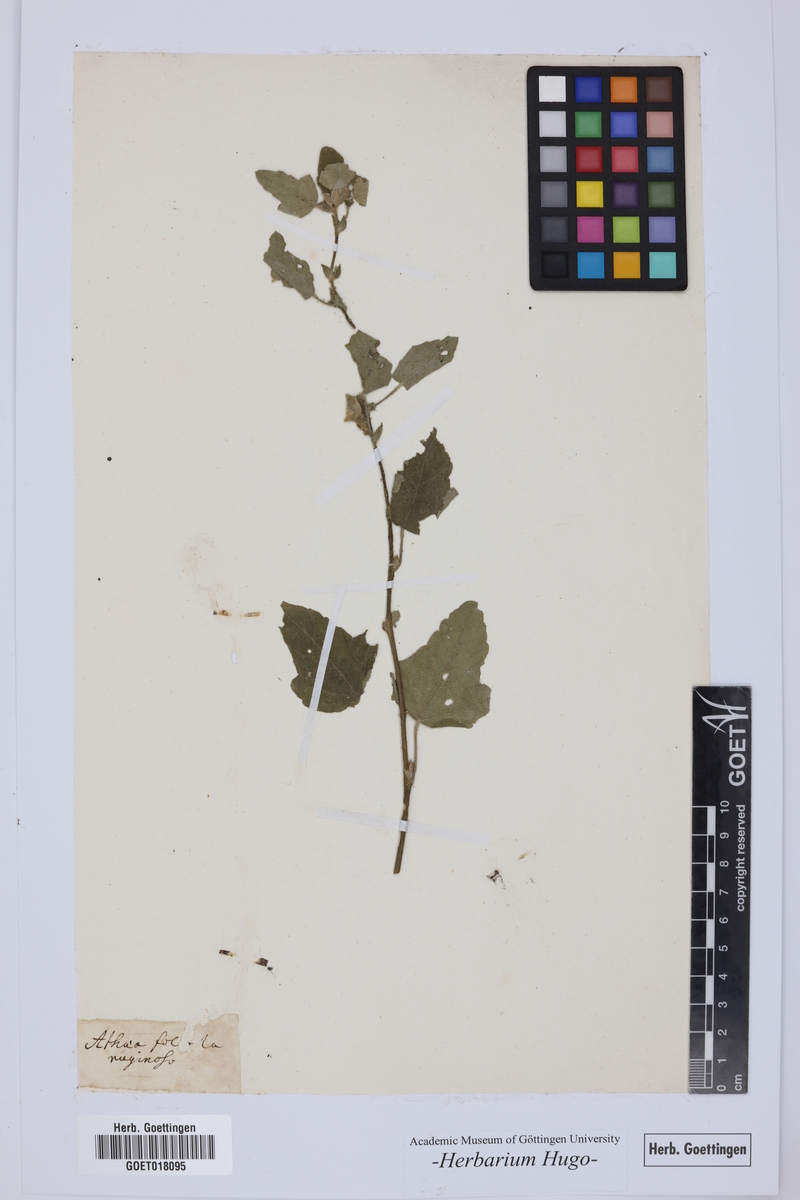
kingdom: Plantae
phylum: Tracheophyta
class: Magnoliopsida
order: Malvales
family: Malvaceae
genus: Althaea
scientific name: Althaea
